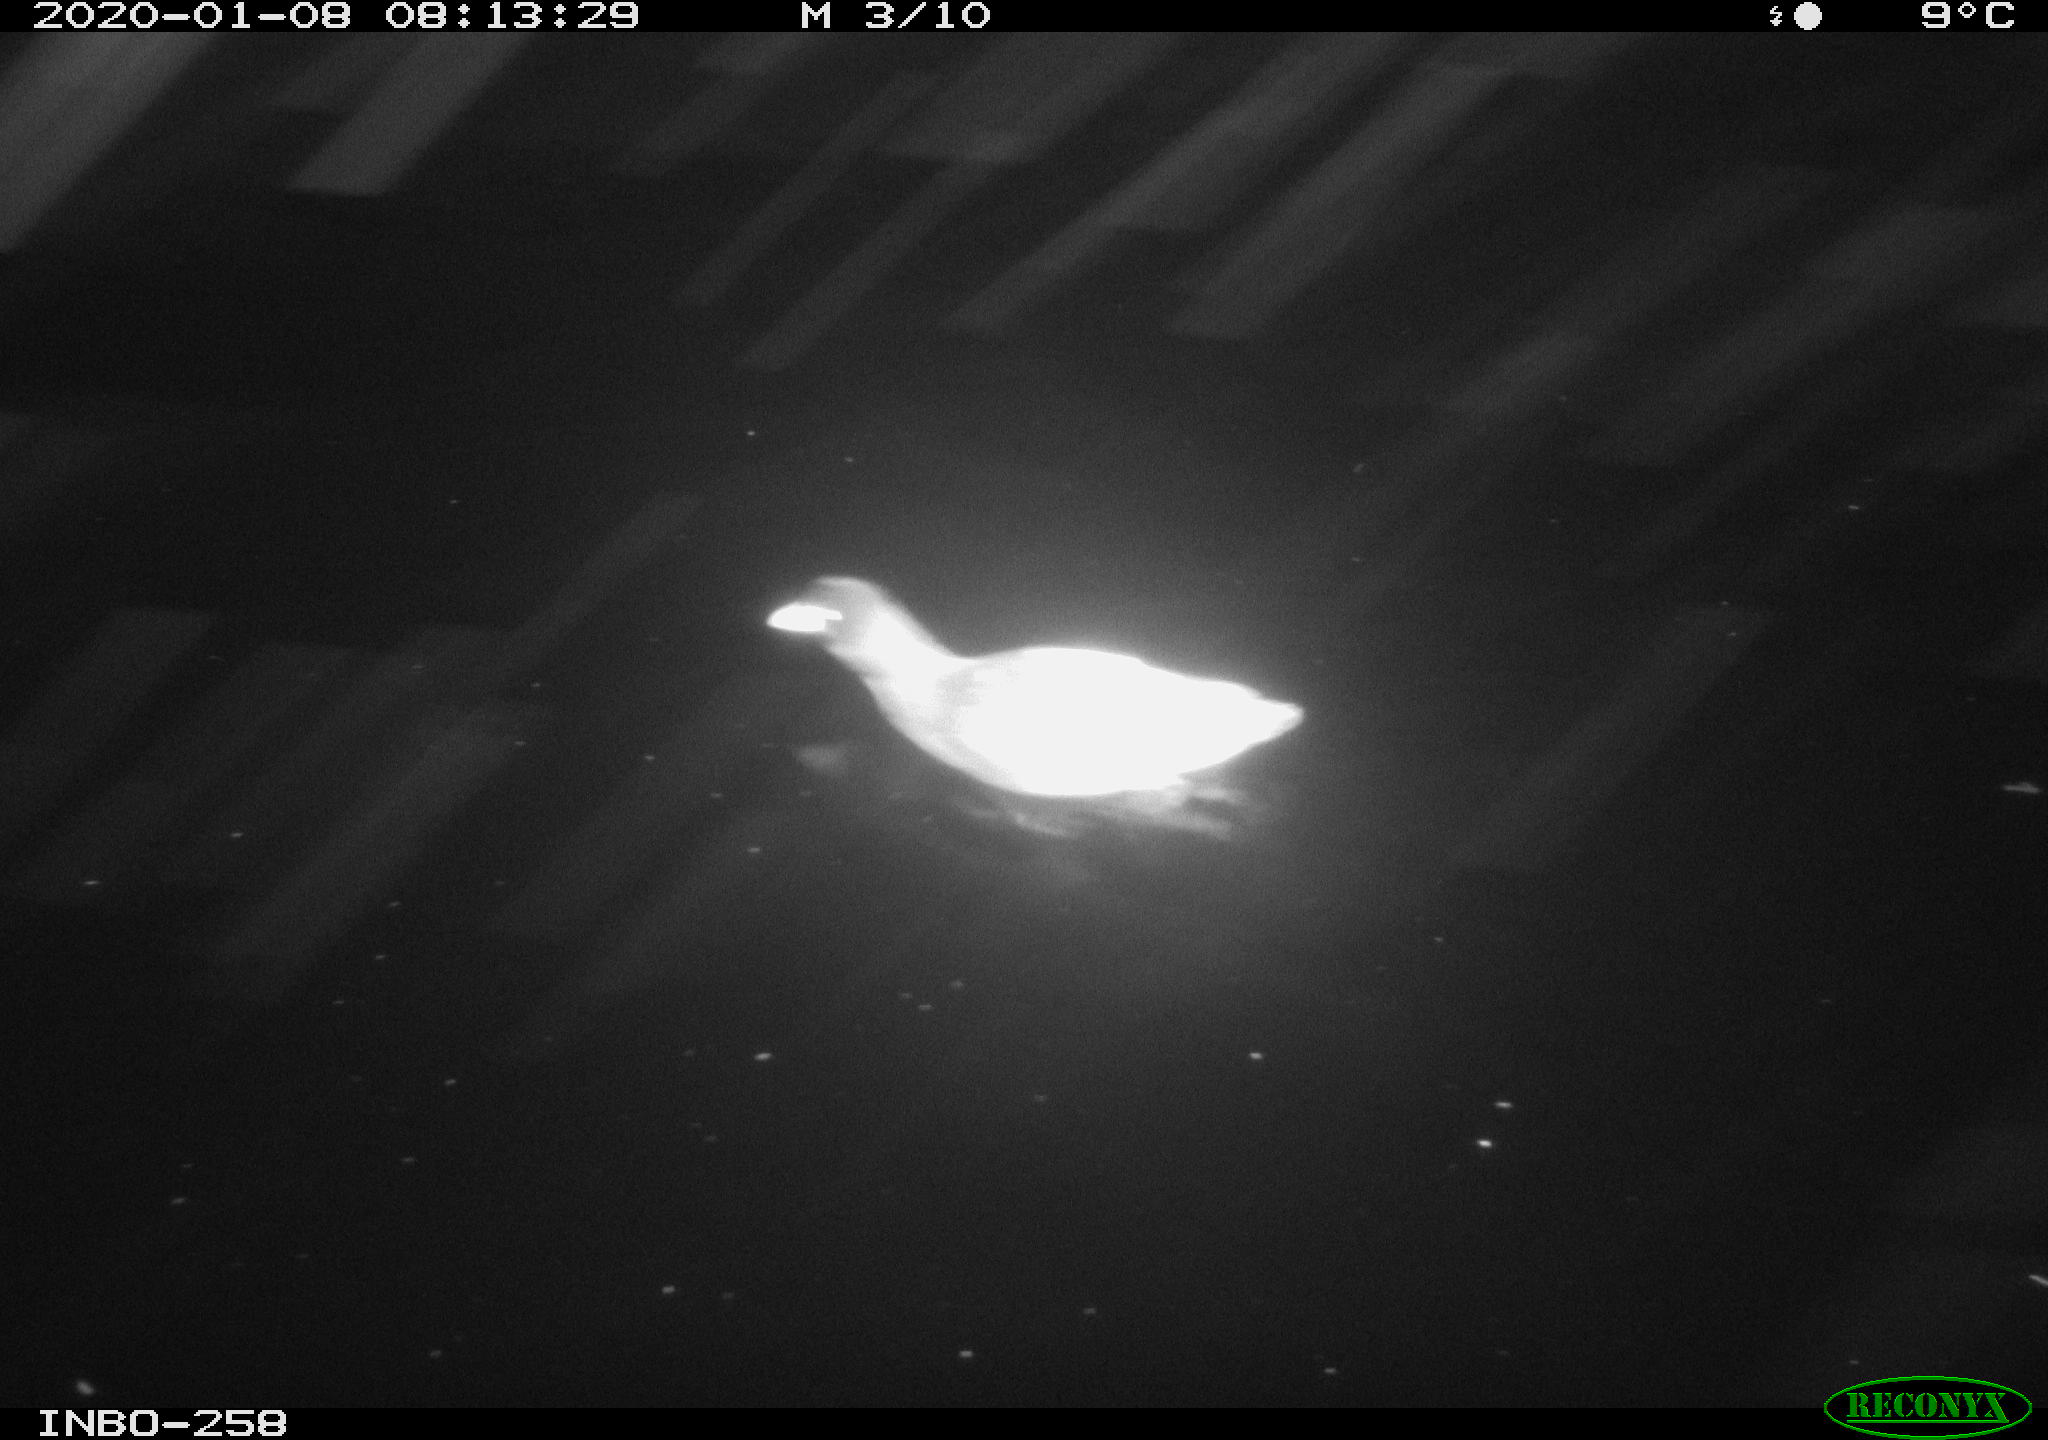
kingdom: Animalia
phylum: Chordata
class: Aves
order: Gruiformes
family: Rallidae
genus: Gallinula
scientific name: Gallinula chloropus
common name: Common moorhen
